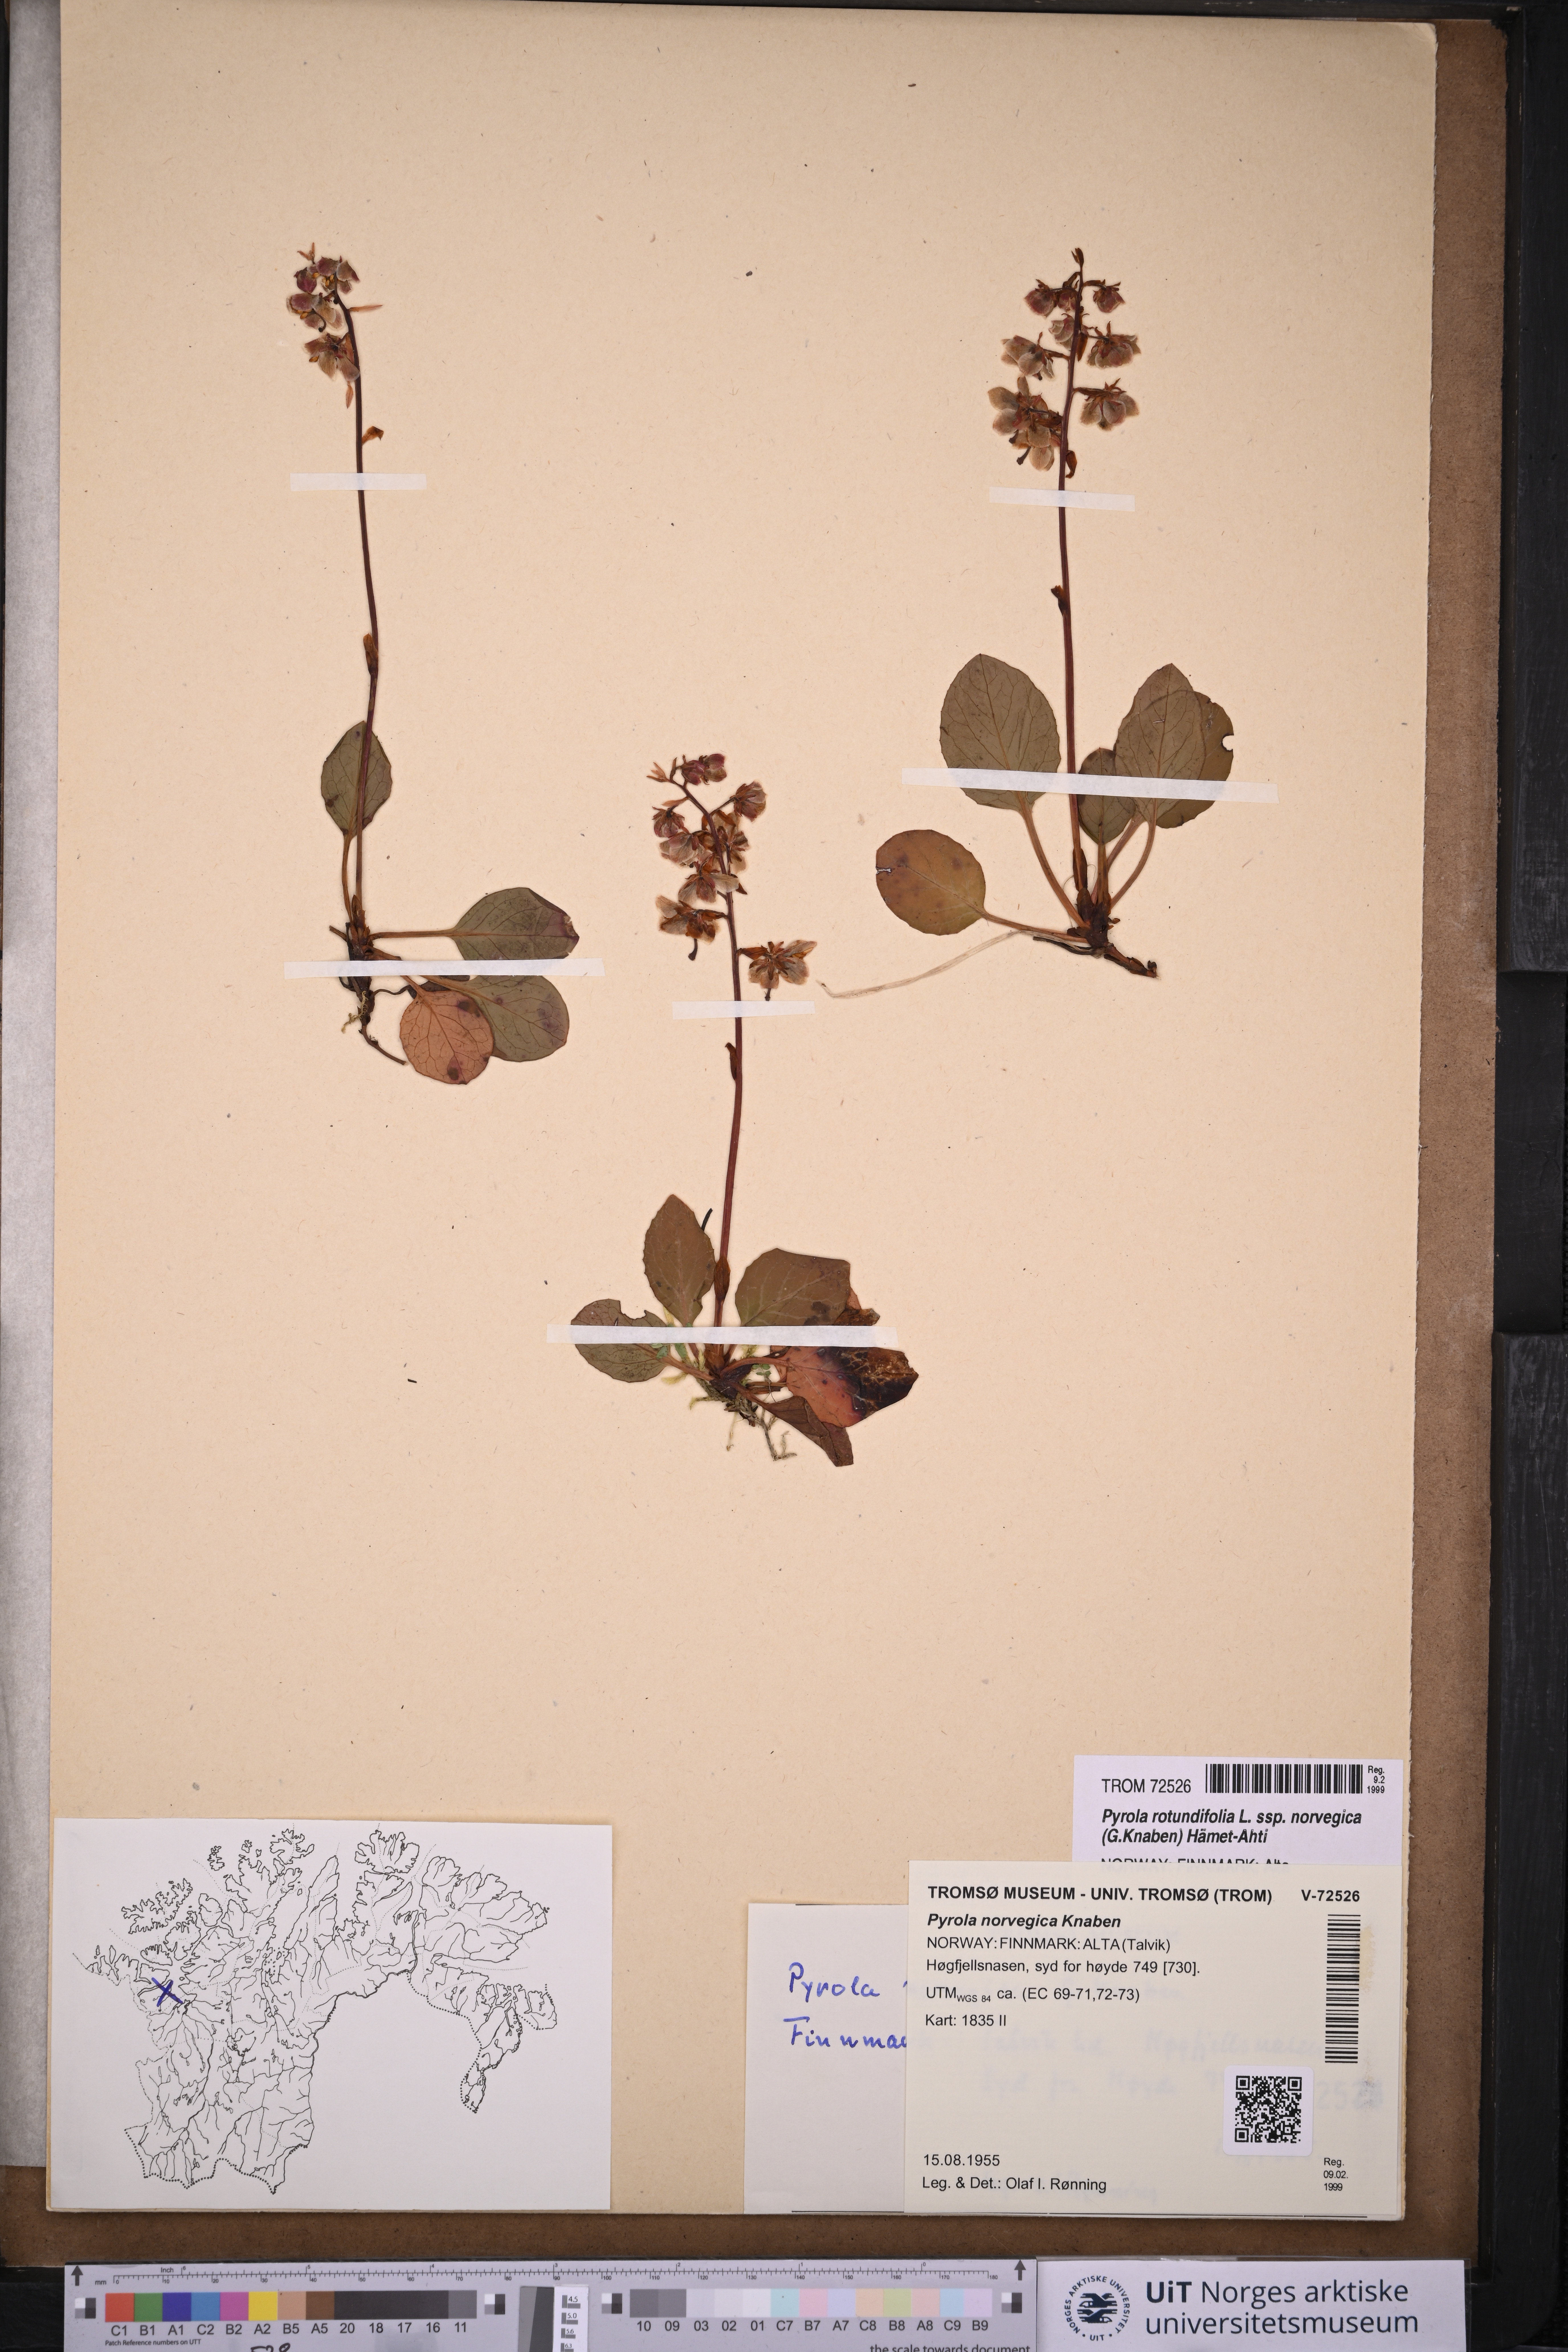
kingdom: Plantae
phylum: Tracheophyta
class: Magnoliopsida
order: Ericales
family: Ericaceae
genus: Pyrola
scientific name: Pyrola rotundifolia
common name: Round-leaved wintergreen
